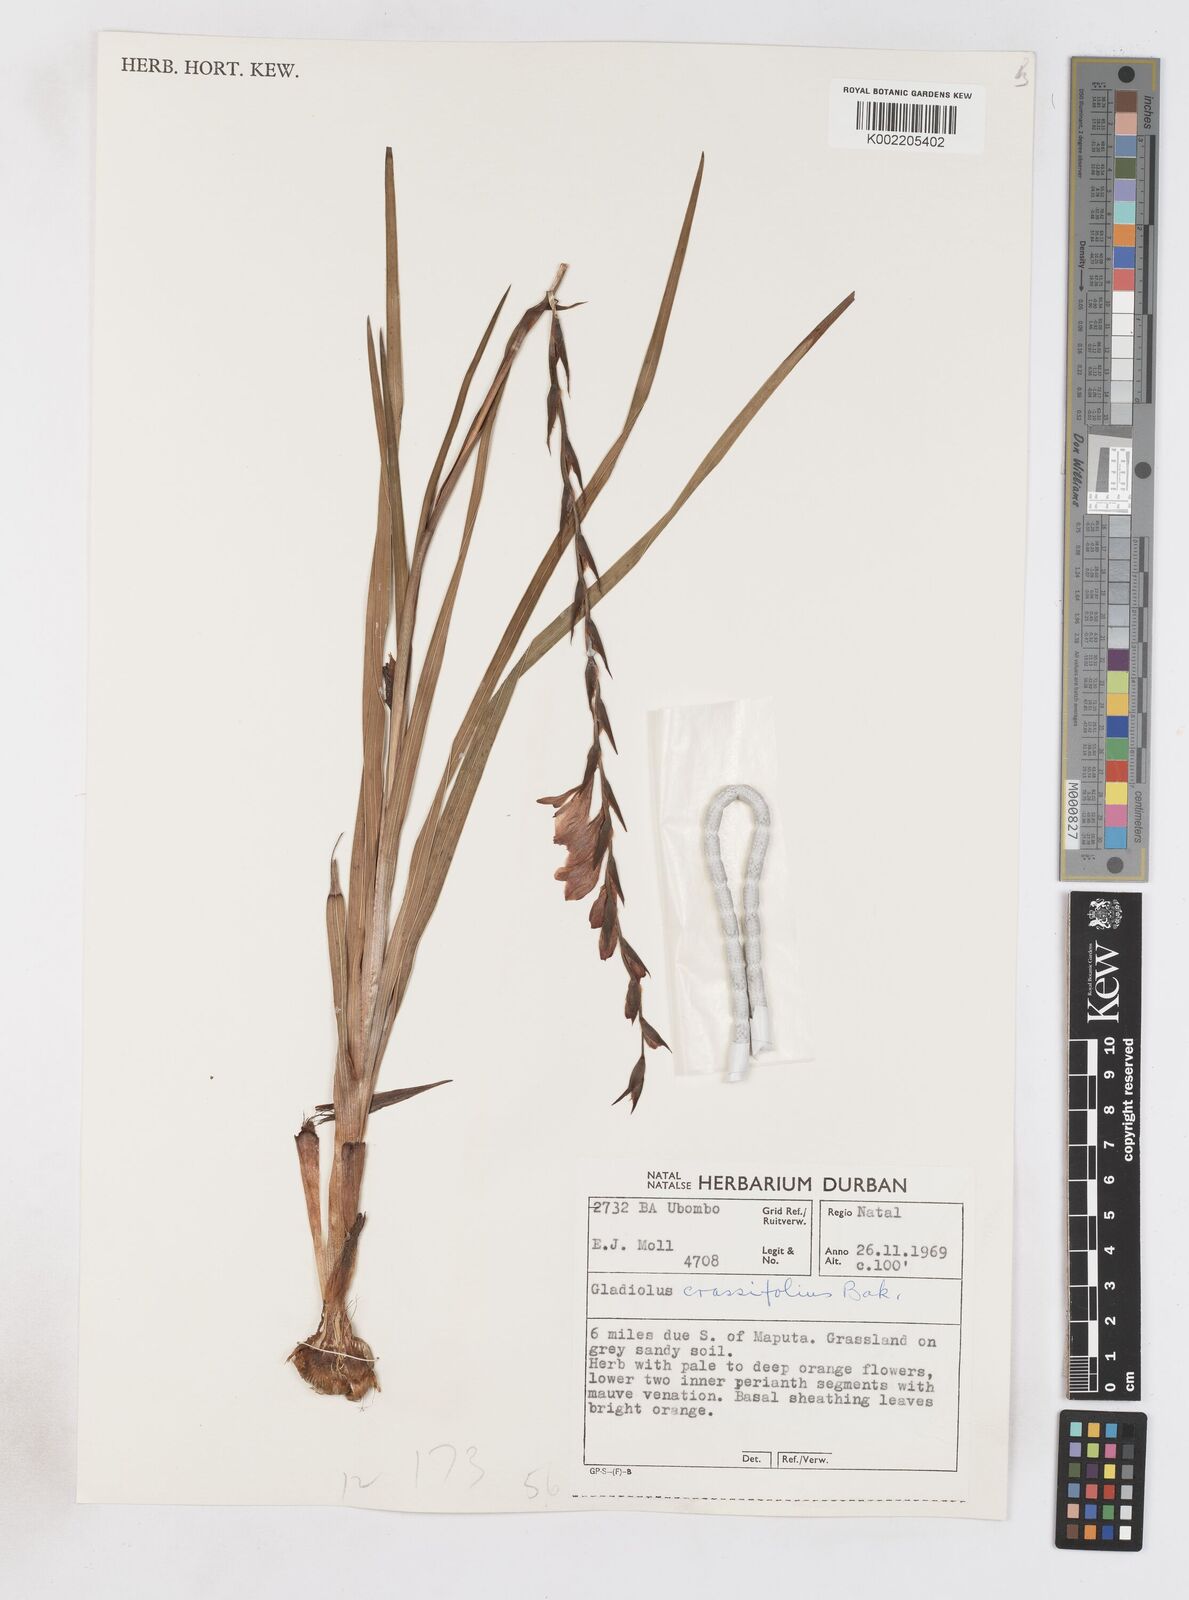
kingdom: Plantae
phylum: Tracheophyta
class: Liliopsida
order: Asparagales
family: Iridaceae
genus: Gladiolus
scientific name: Gladiolus densiflorus
